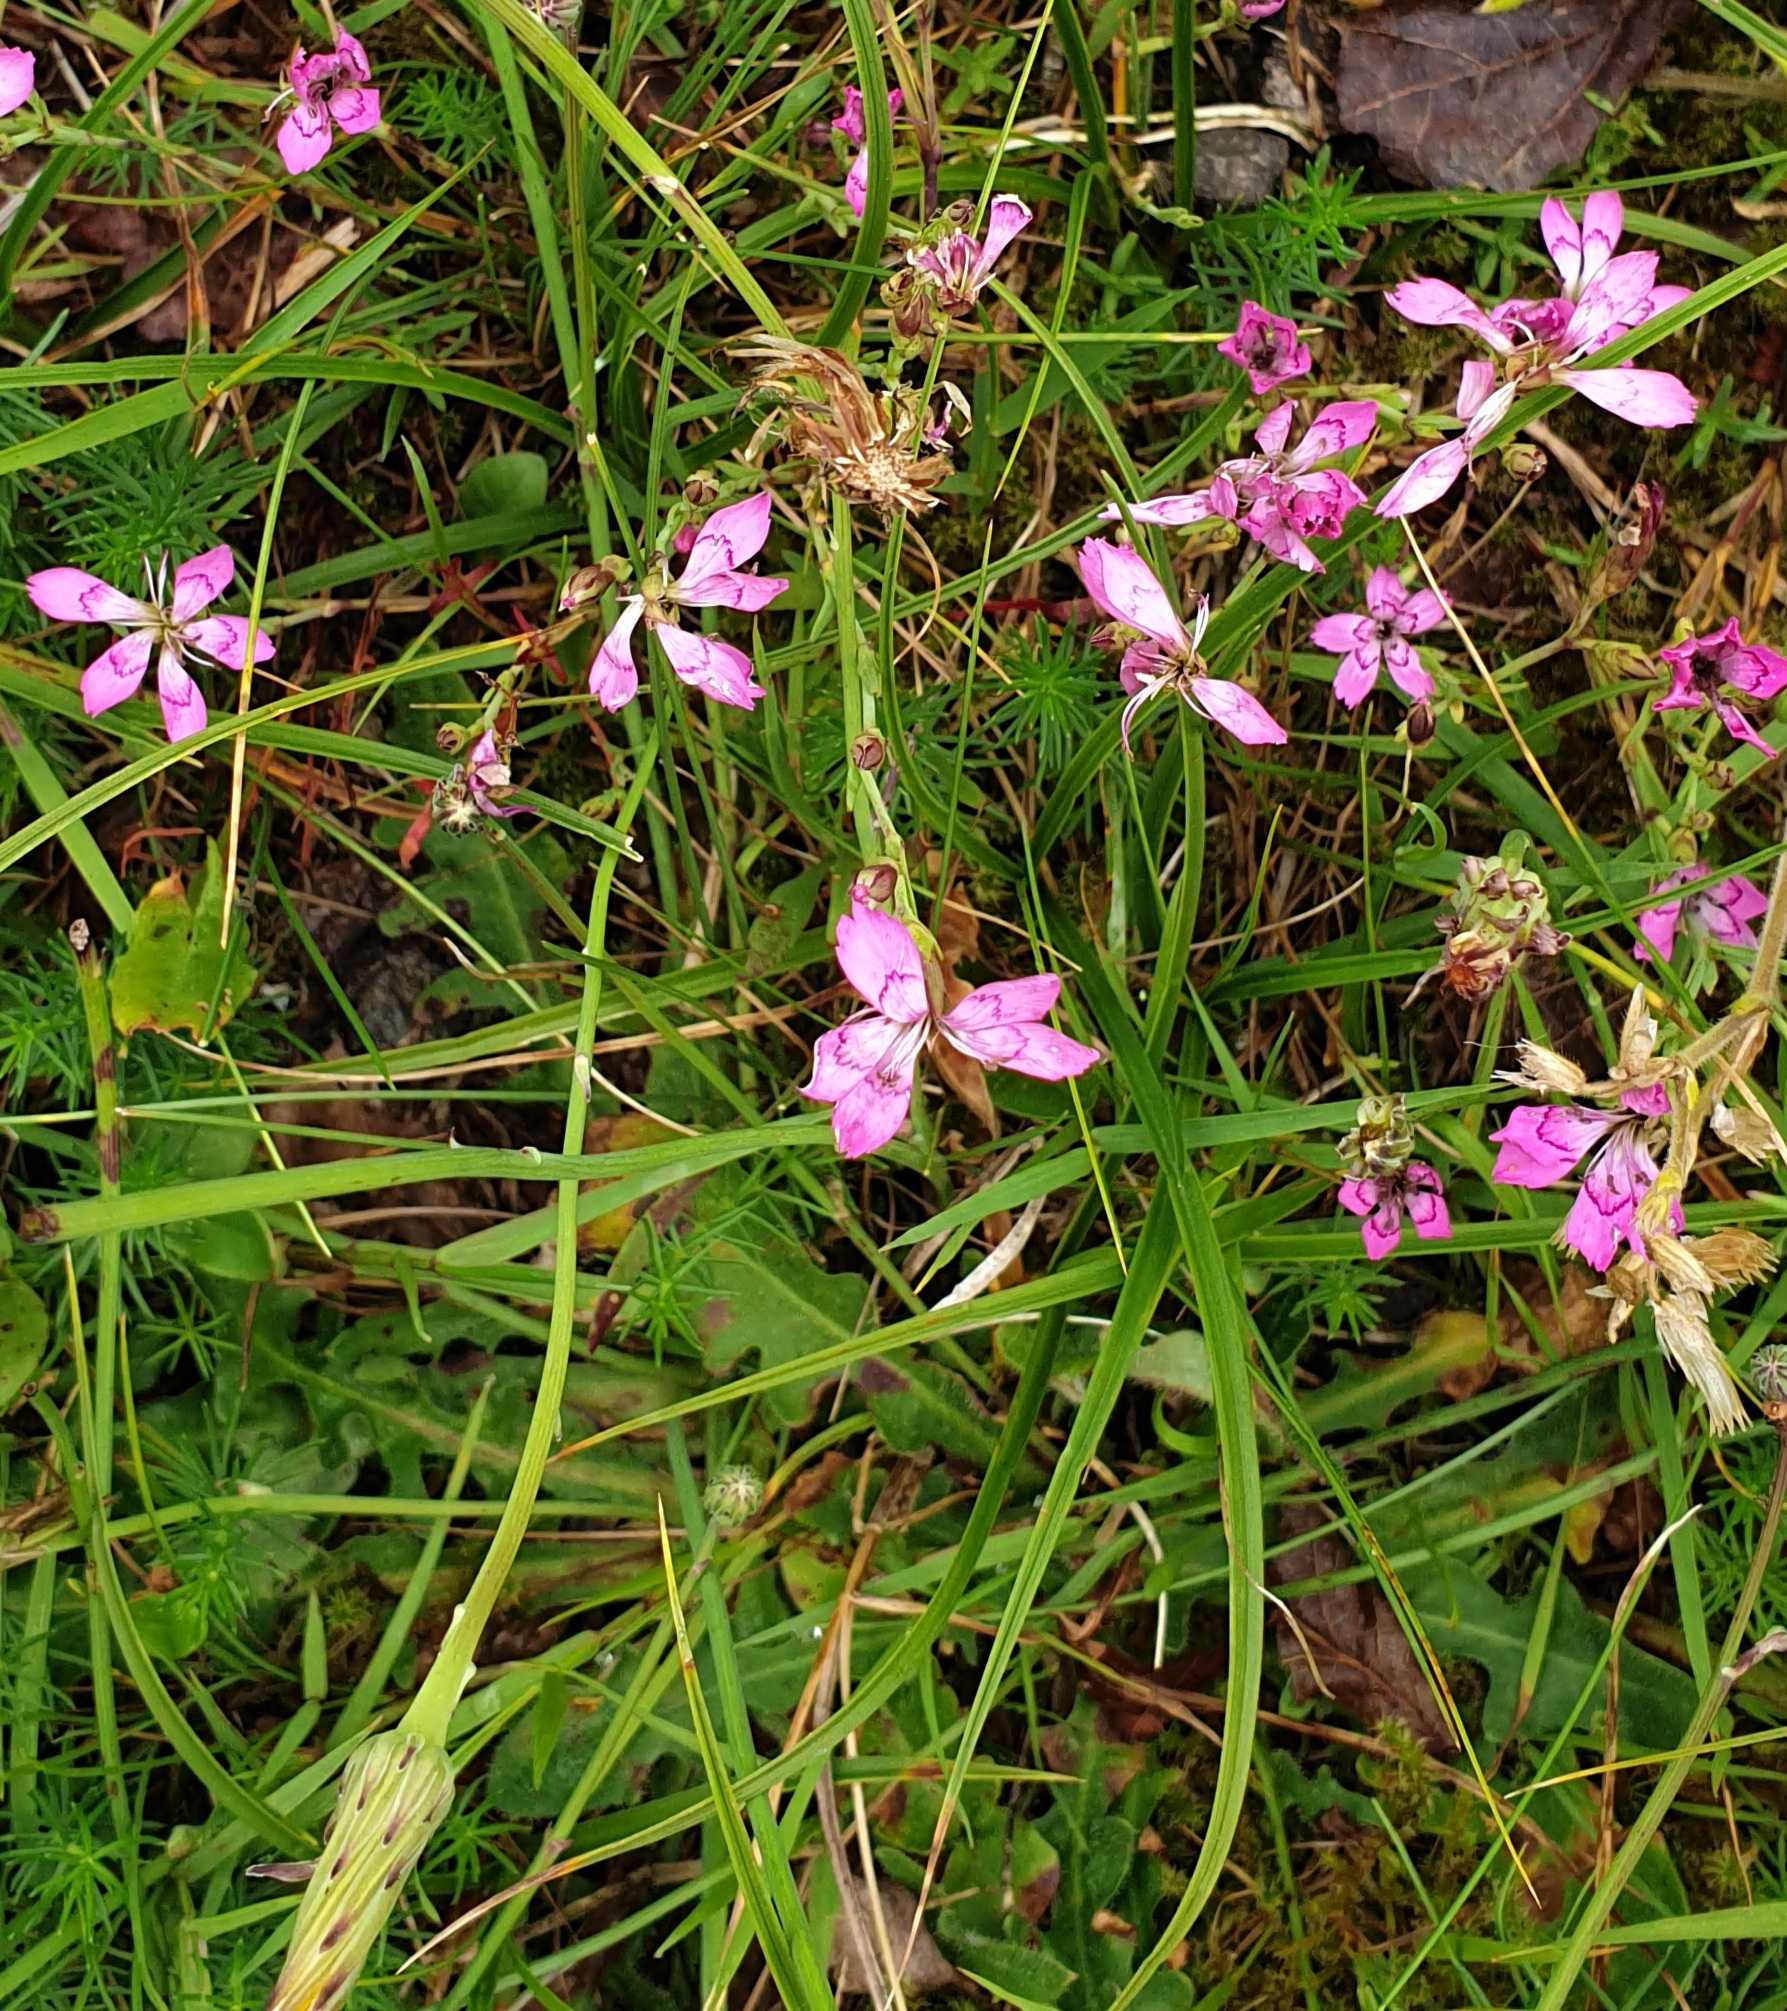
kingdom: Plantae
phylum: Tracheophyta
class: Magnoliopsida
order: Caryophyllales
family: Caryophyllaceae
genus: Dianthus
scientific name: Dianthus deltoides
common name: Bakke-nellike
